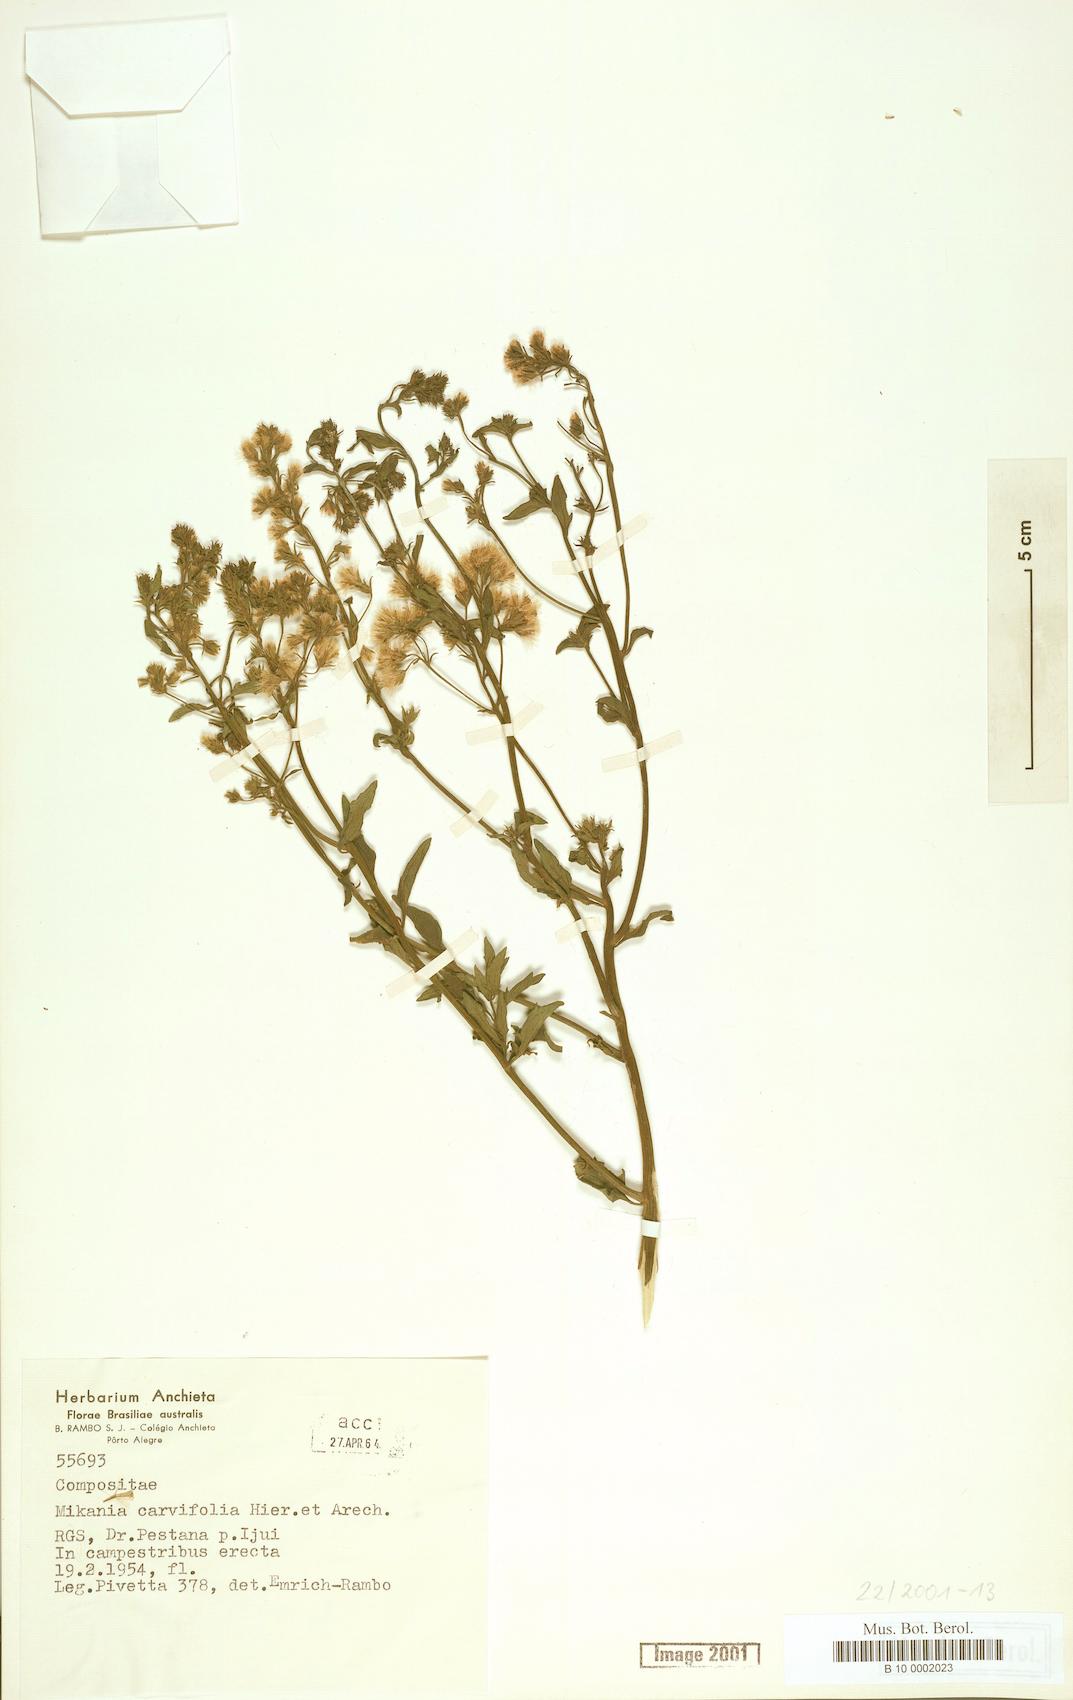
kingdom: Plantae
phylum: Tracheophyta
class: Magnoliopsida
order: Asterales
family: Asteraceae
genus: Mikania
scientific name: Mikania anethifolia
